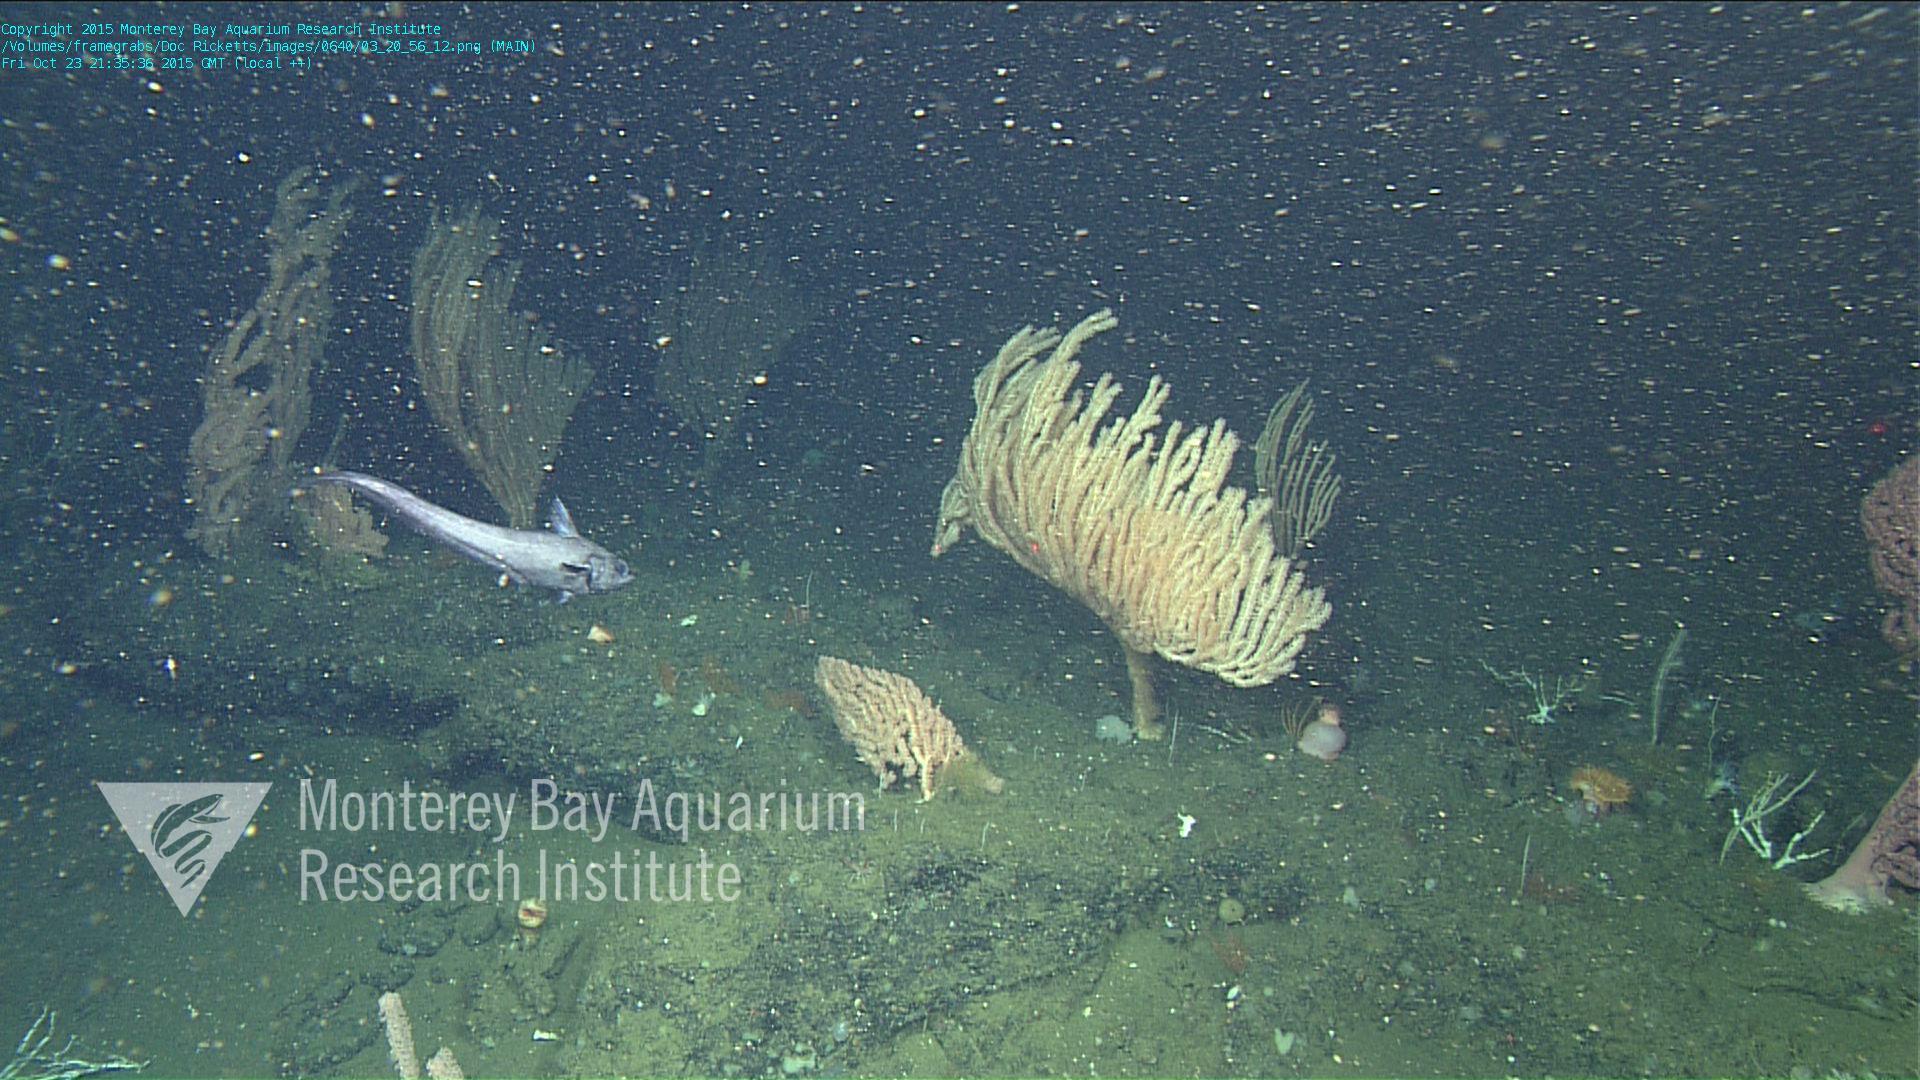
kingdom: Animalia
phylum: Cnidaria
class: Anthozoa
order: Scleralcyonacea
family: Keratoisididae
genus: Isidella
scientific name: Isidella tentaculum
